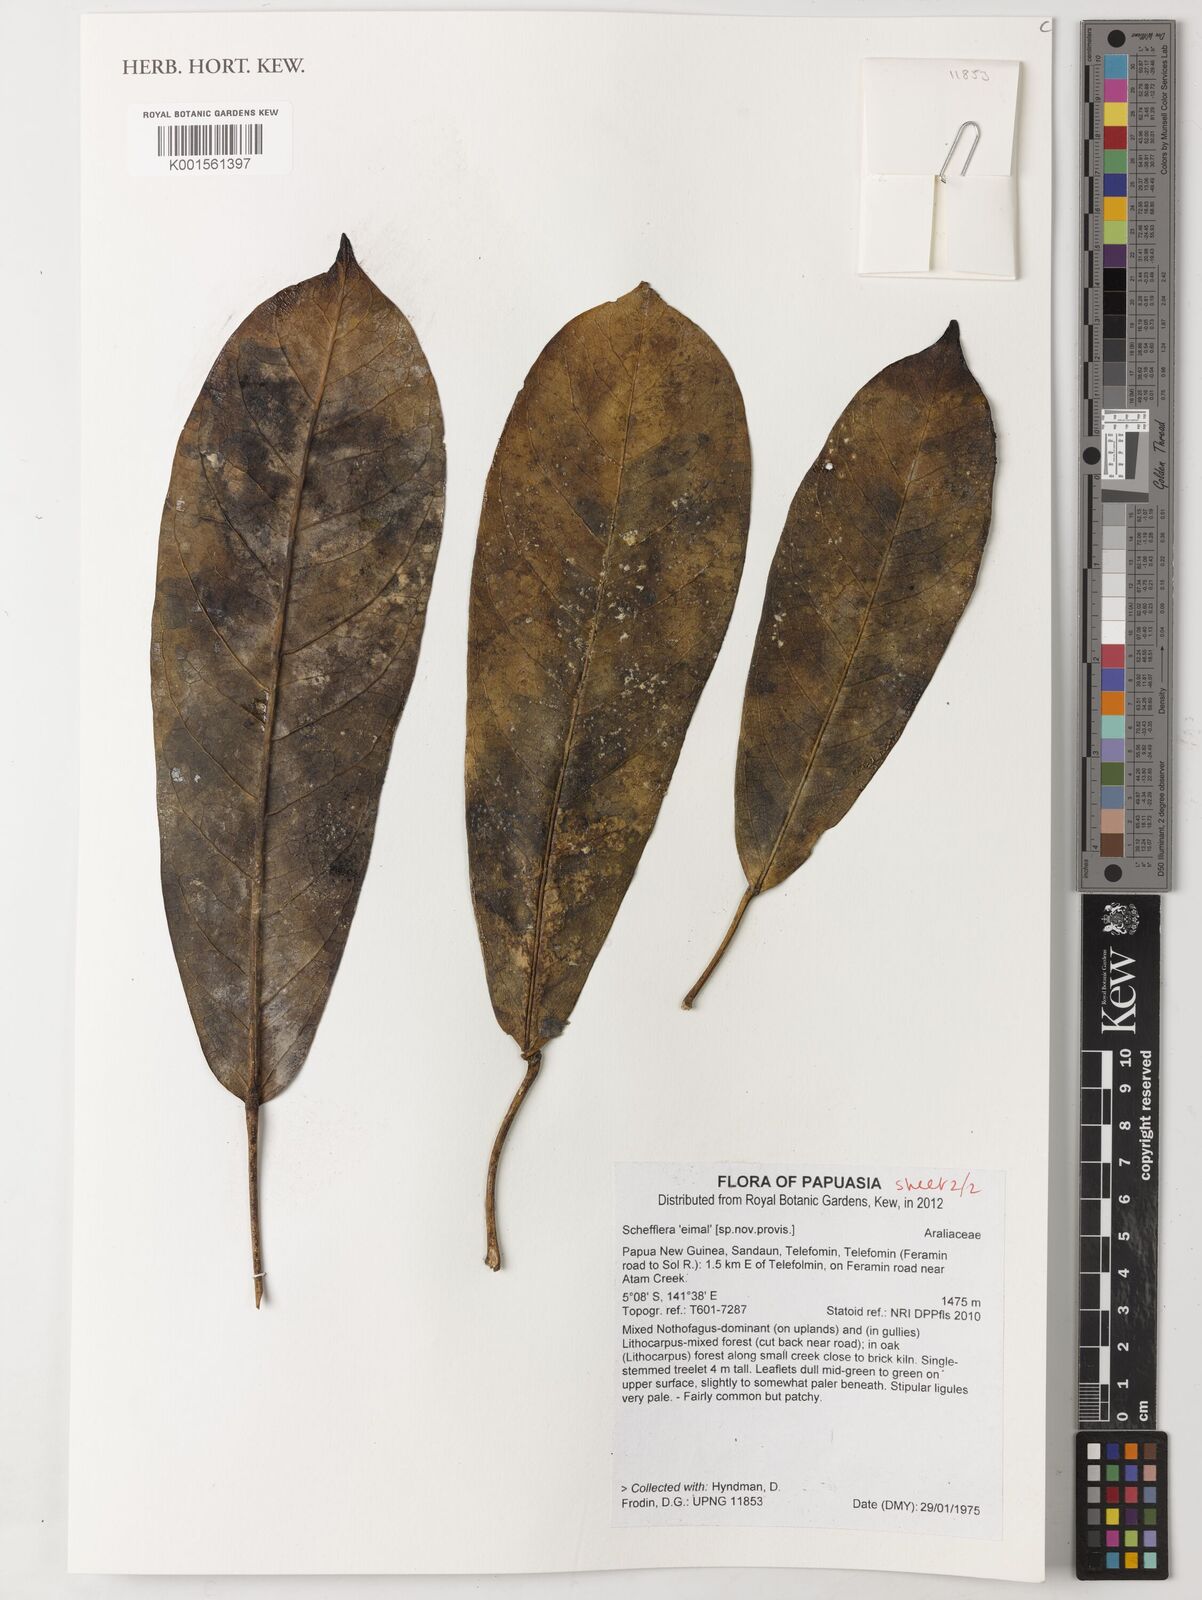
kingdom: Plantae
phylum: Tracheophyta
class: Magnoliopsida
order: Apiales
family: Araliaceae
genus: Schefflera
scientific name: Schefflera
